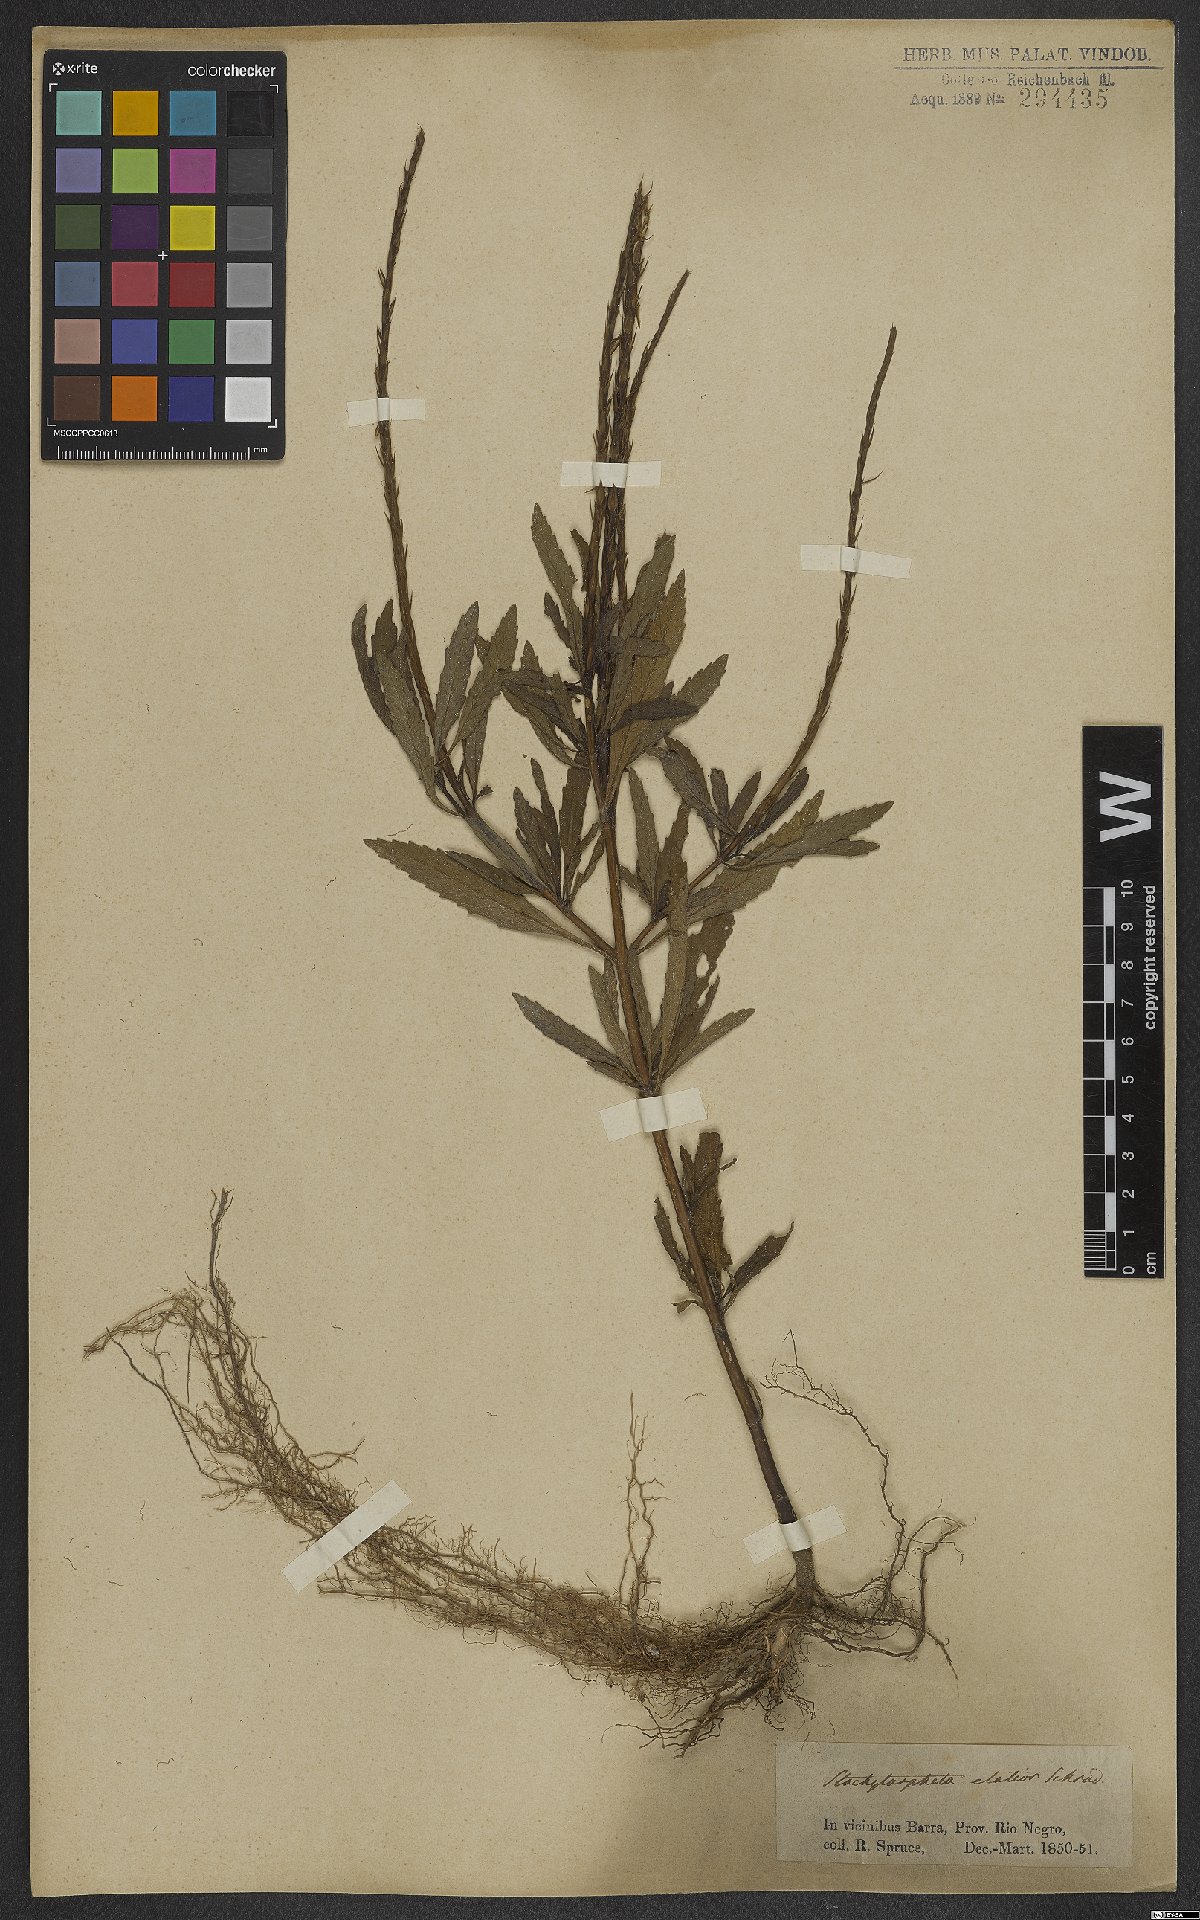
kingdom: Plantae
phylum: Tracheophyta
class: Magnoliopsida
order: Lamiales
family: Verbenaceae
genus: Stachytarpheta
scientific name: Stachytarpheta indica
